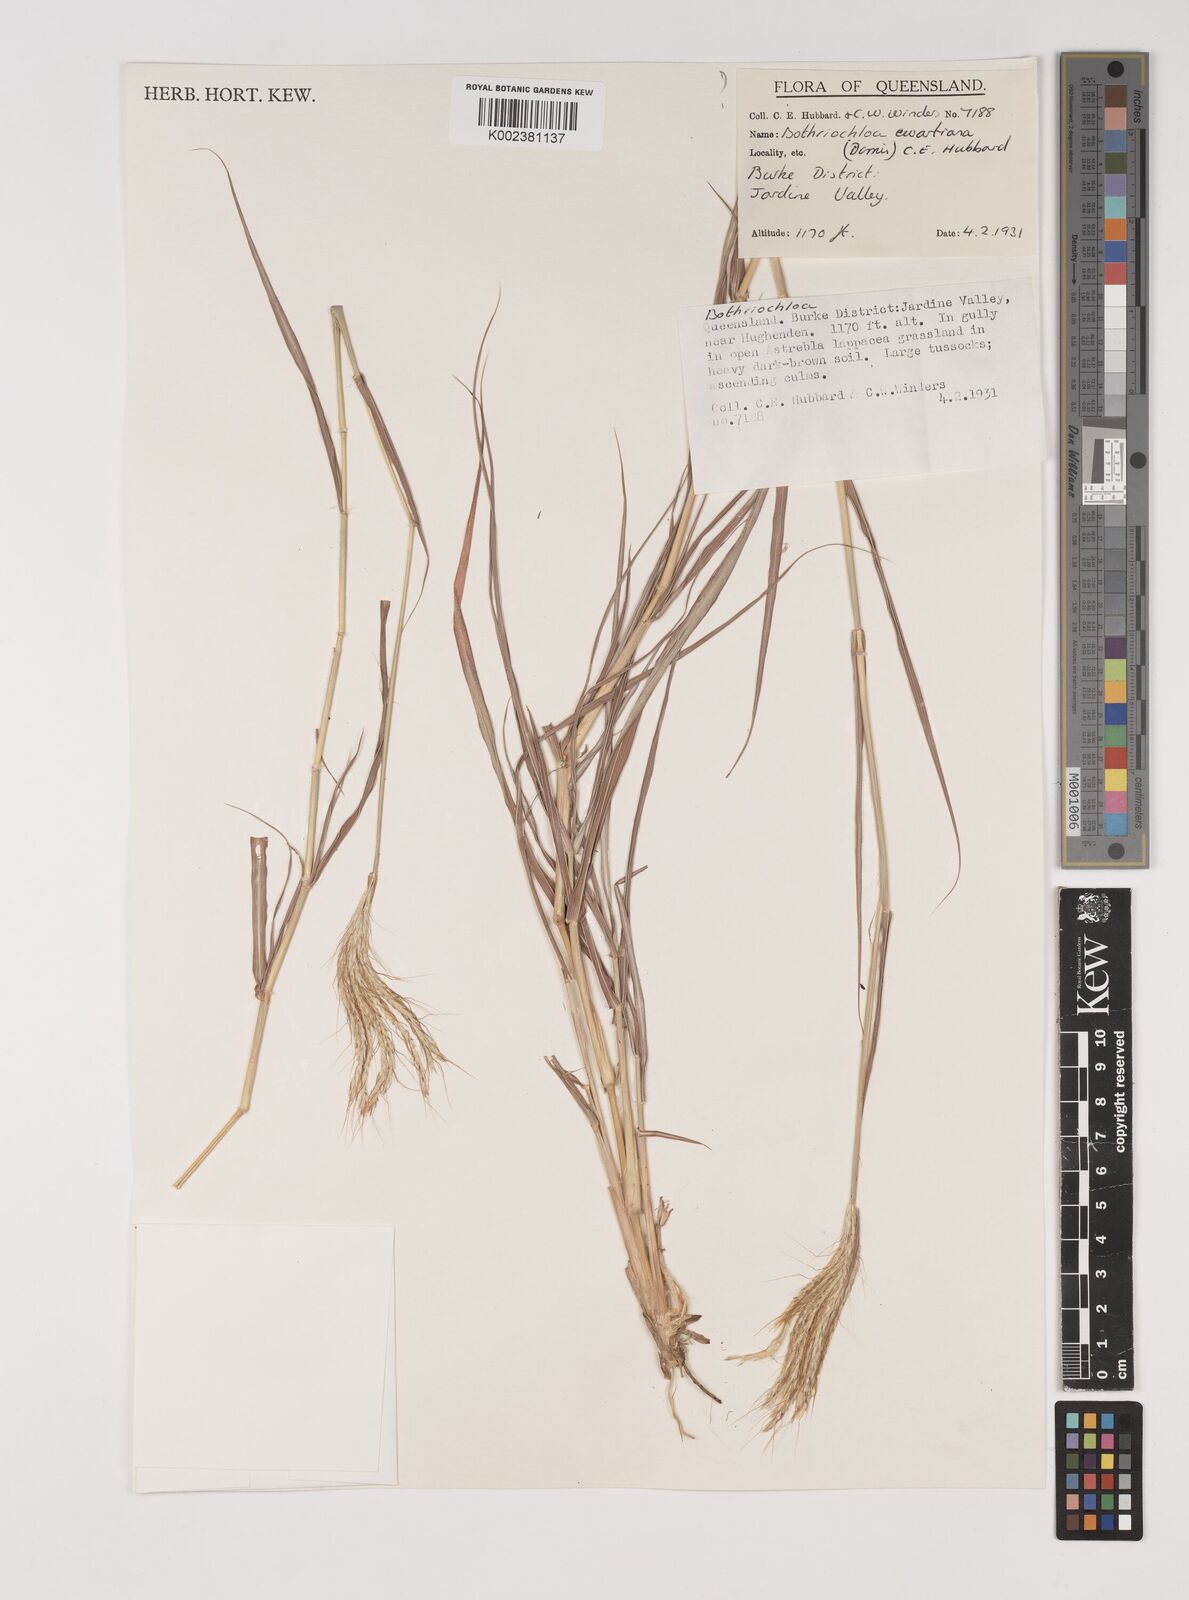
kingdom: Plantae
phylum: Tracheophyta
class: Liliopsida
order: Poales
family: Poaceae
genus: Bothriochloa
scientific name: Bothriochloa ewartiana
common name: Desert-bluegrass
